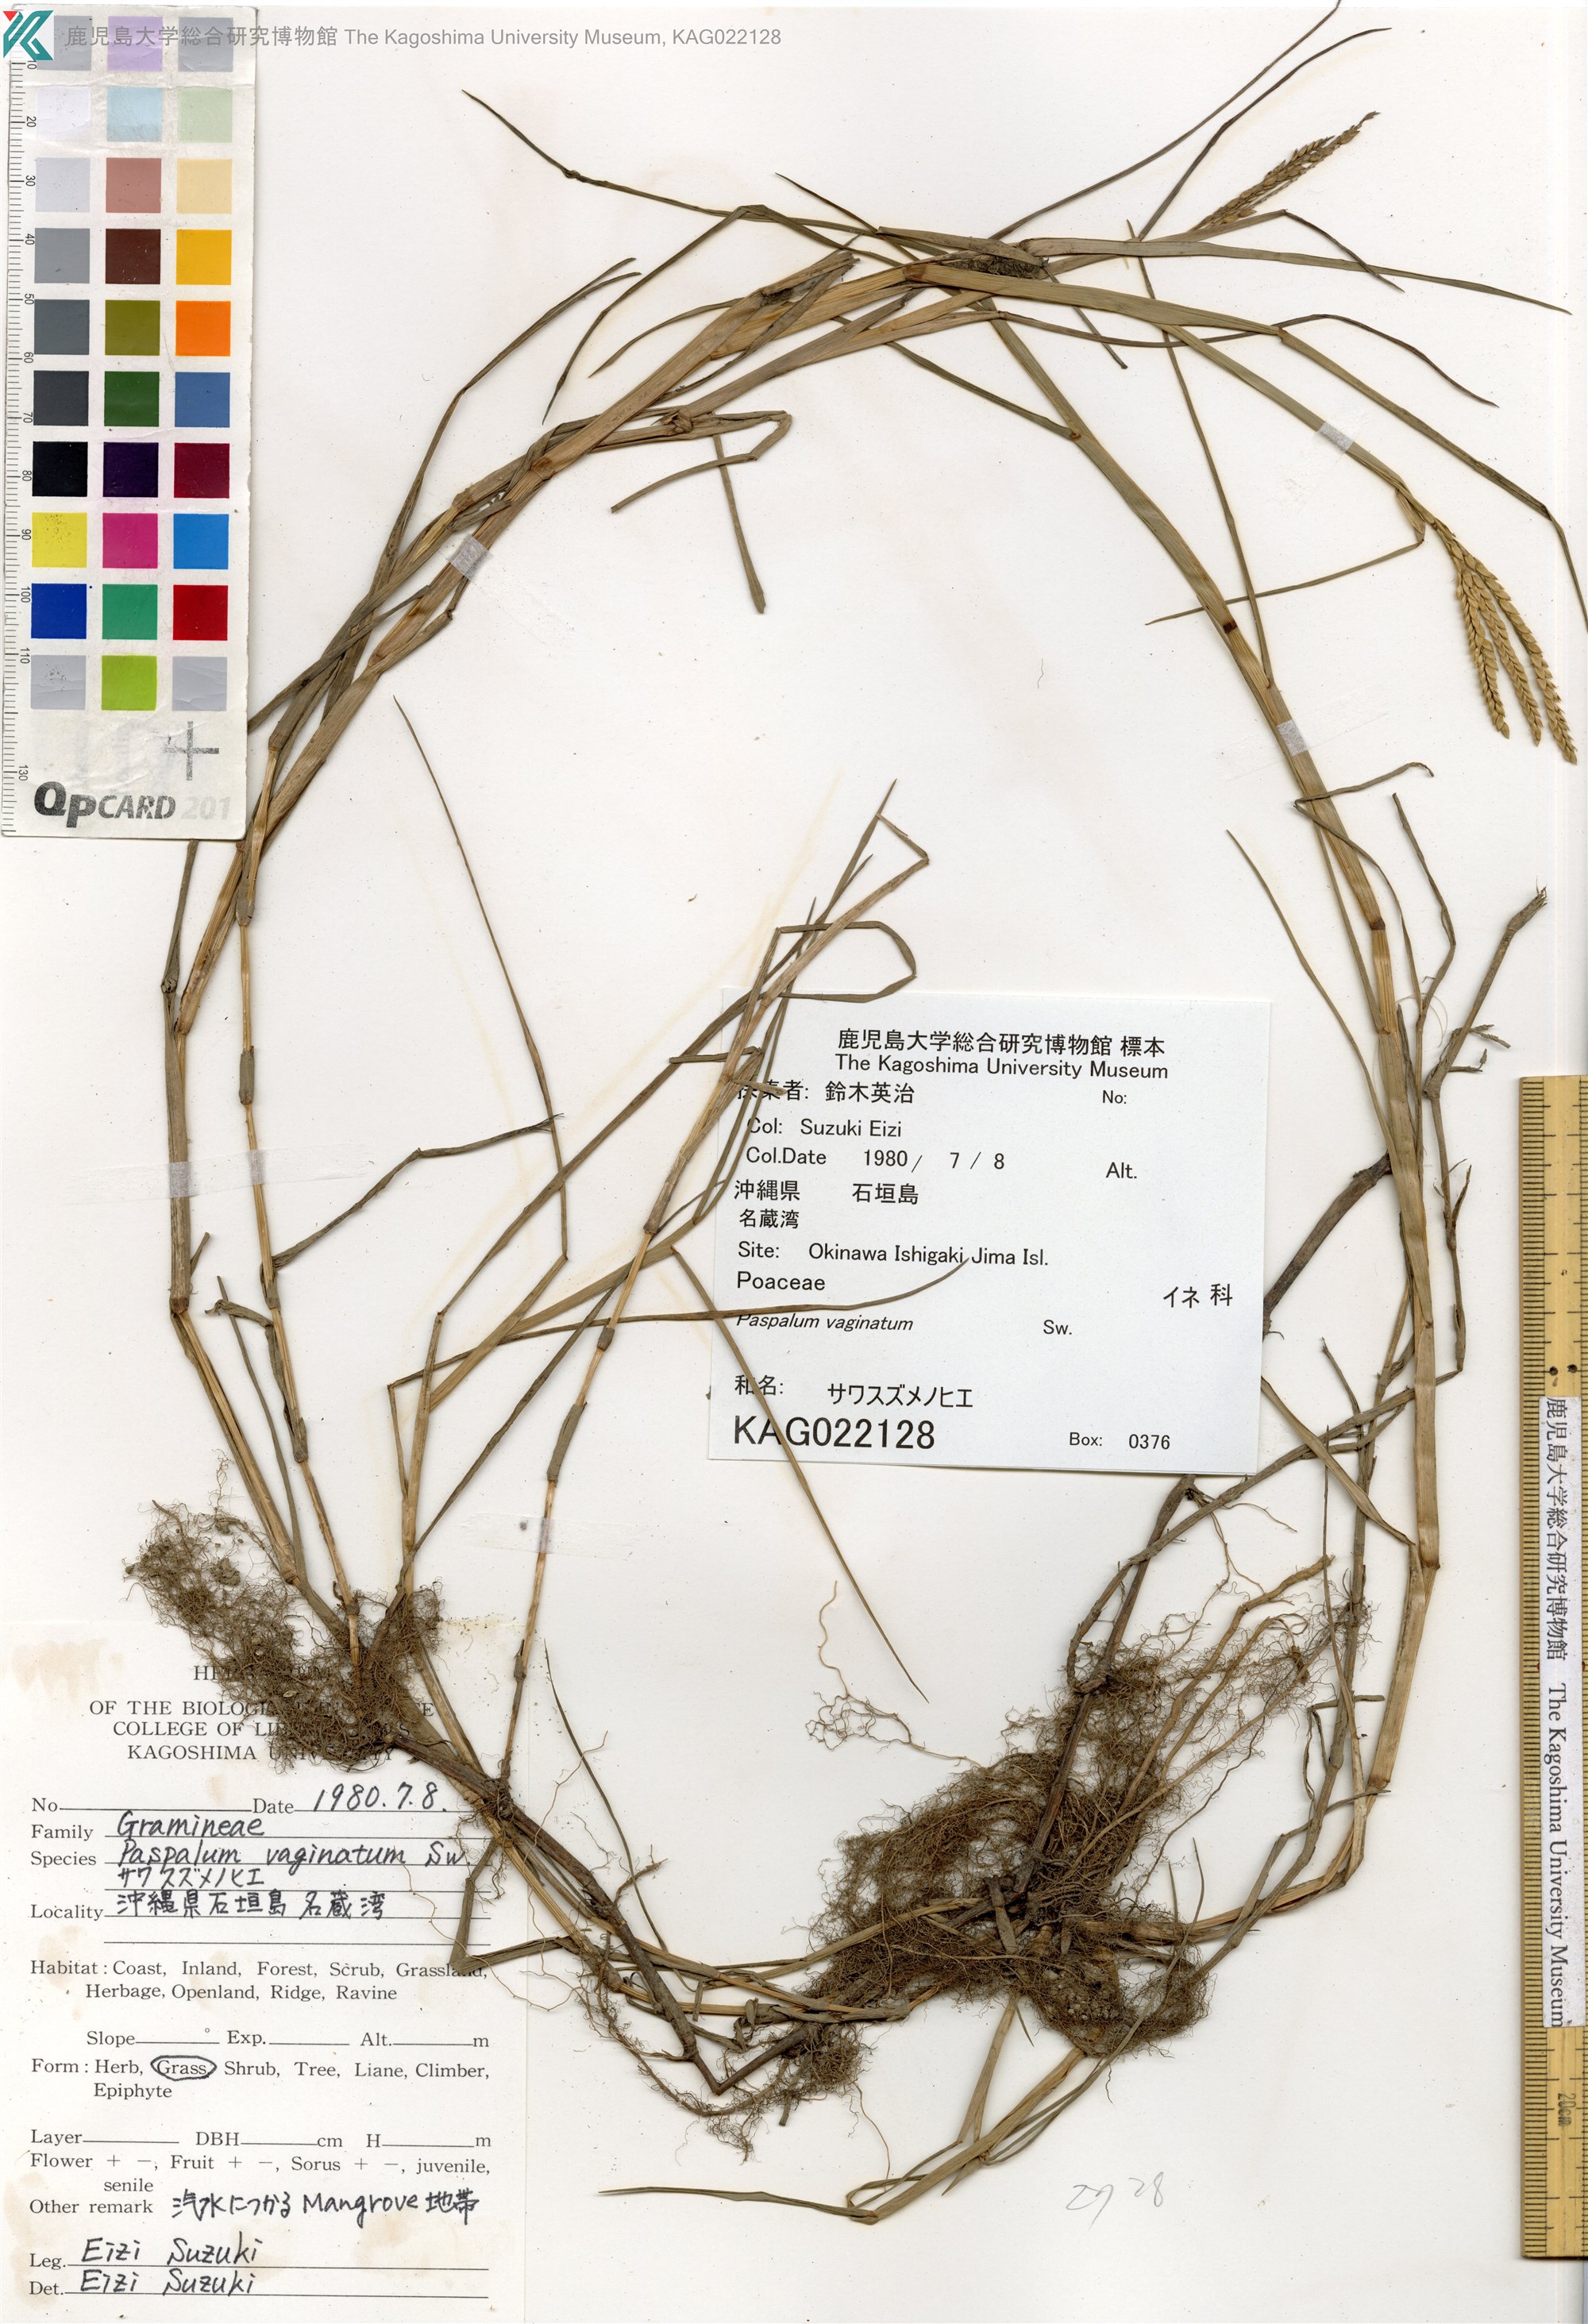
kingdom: Plantae
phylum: Tracheophyta
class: Liliopsida
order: Poales
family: Poaceae
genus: Paspalum
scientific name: Paspalum vaginatum
